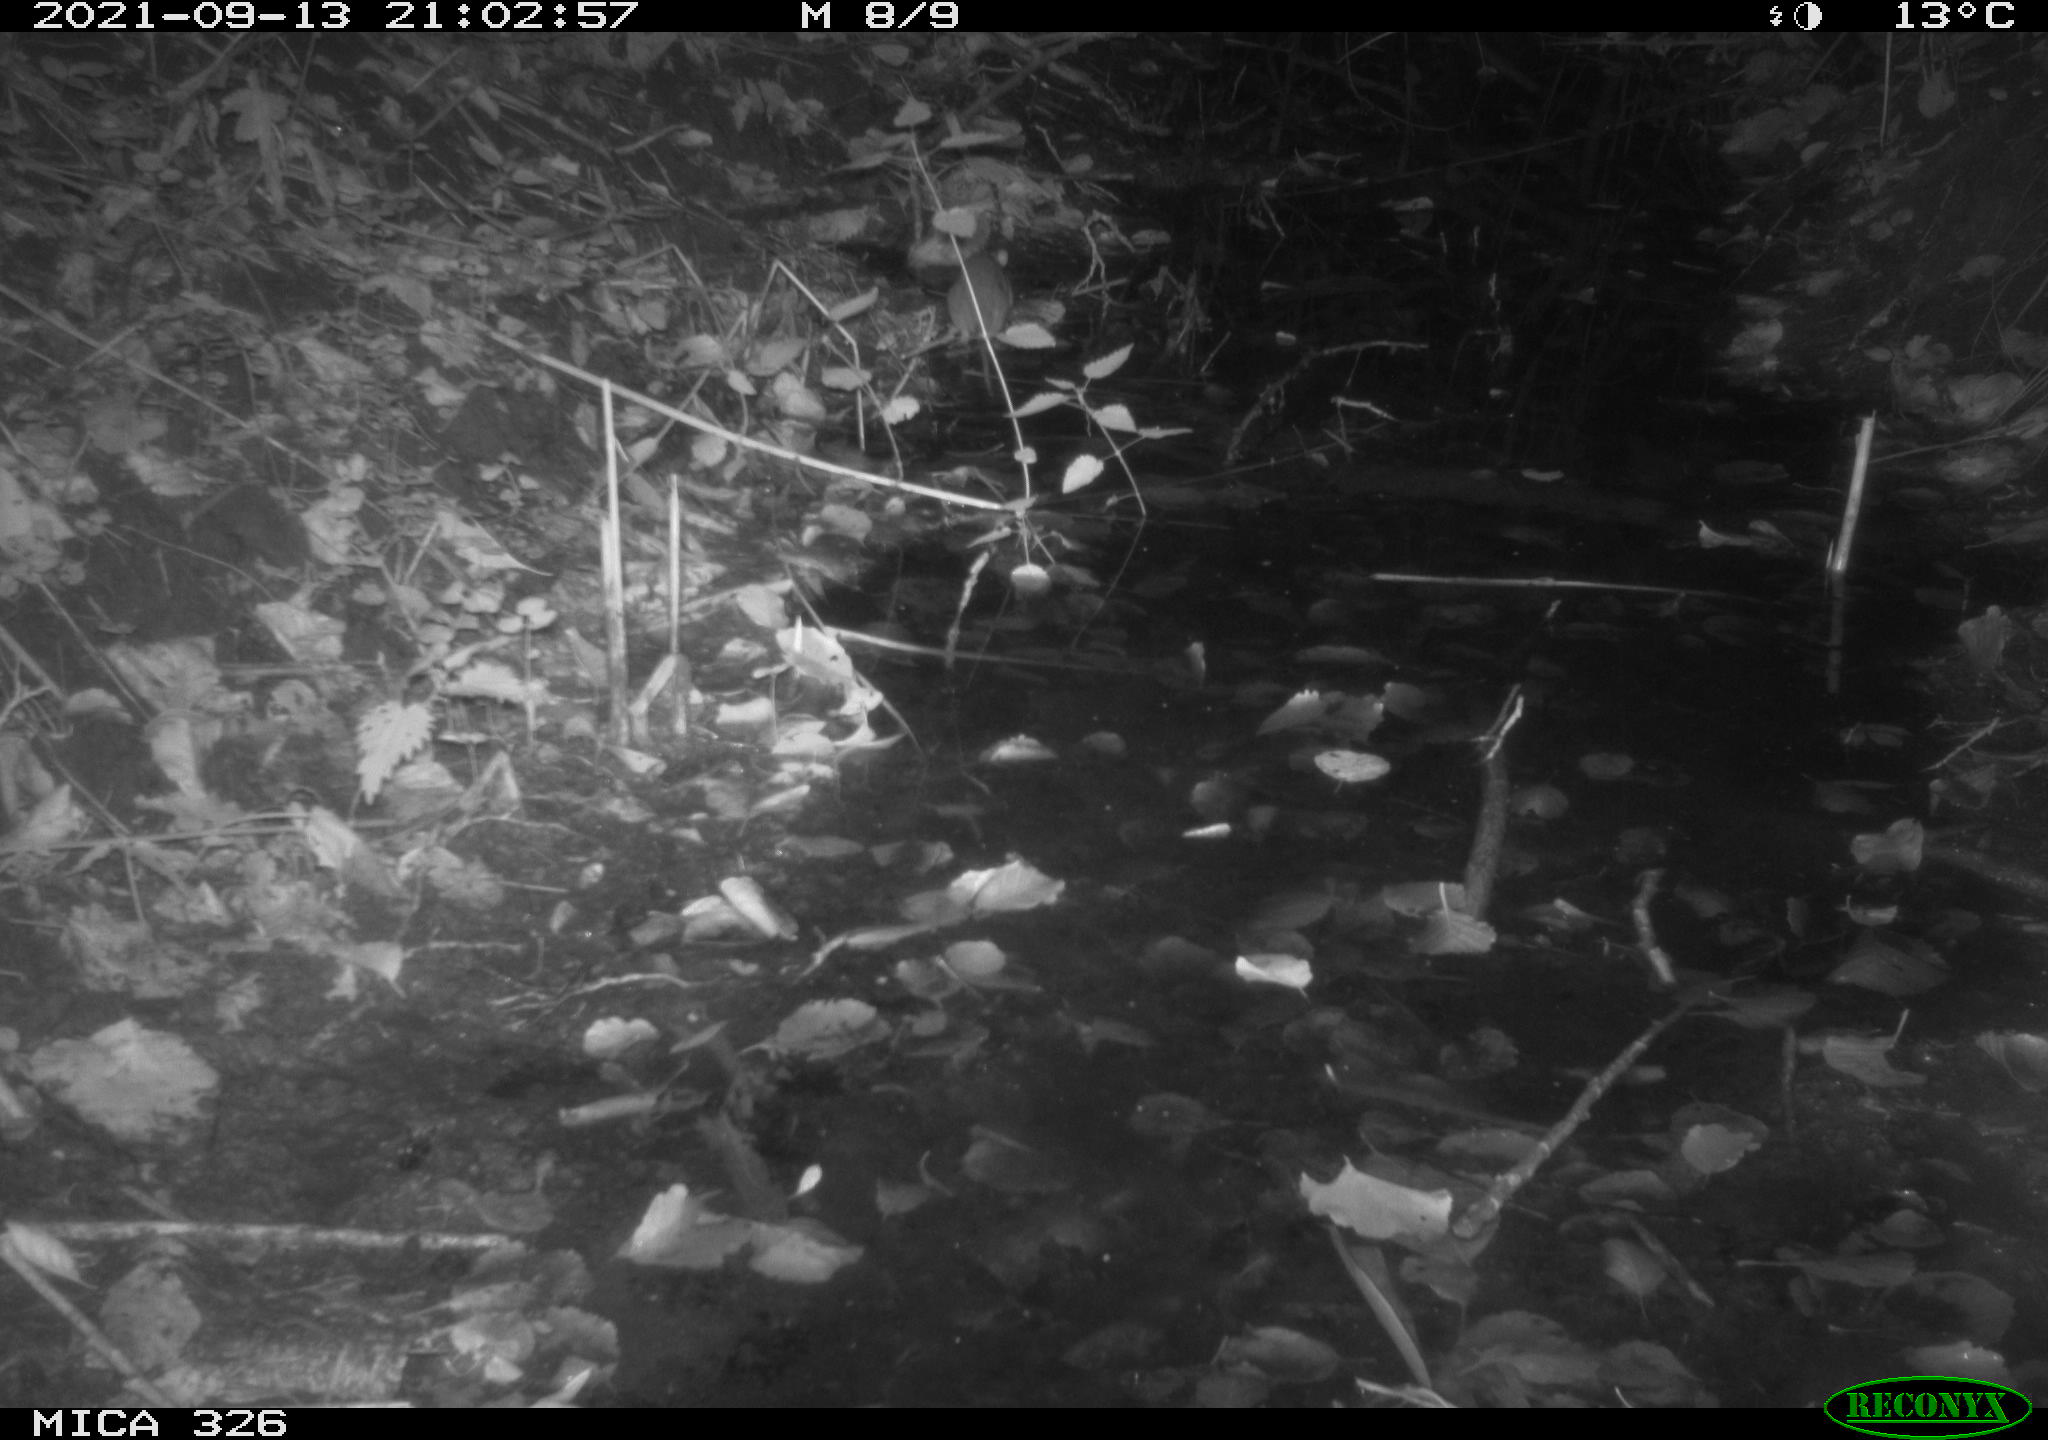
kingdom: Animalia
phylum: Chordata
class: Mammalia
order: Rodentia
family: Muridae
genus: Rattus
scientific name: Rattus norvegicus
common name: Brown rat
